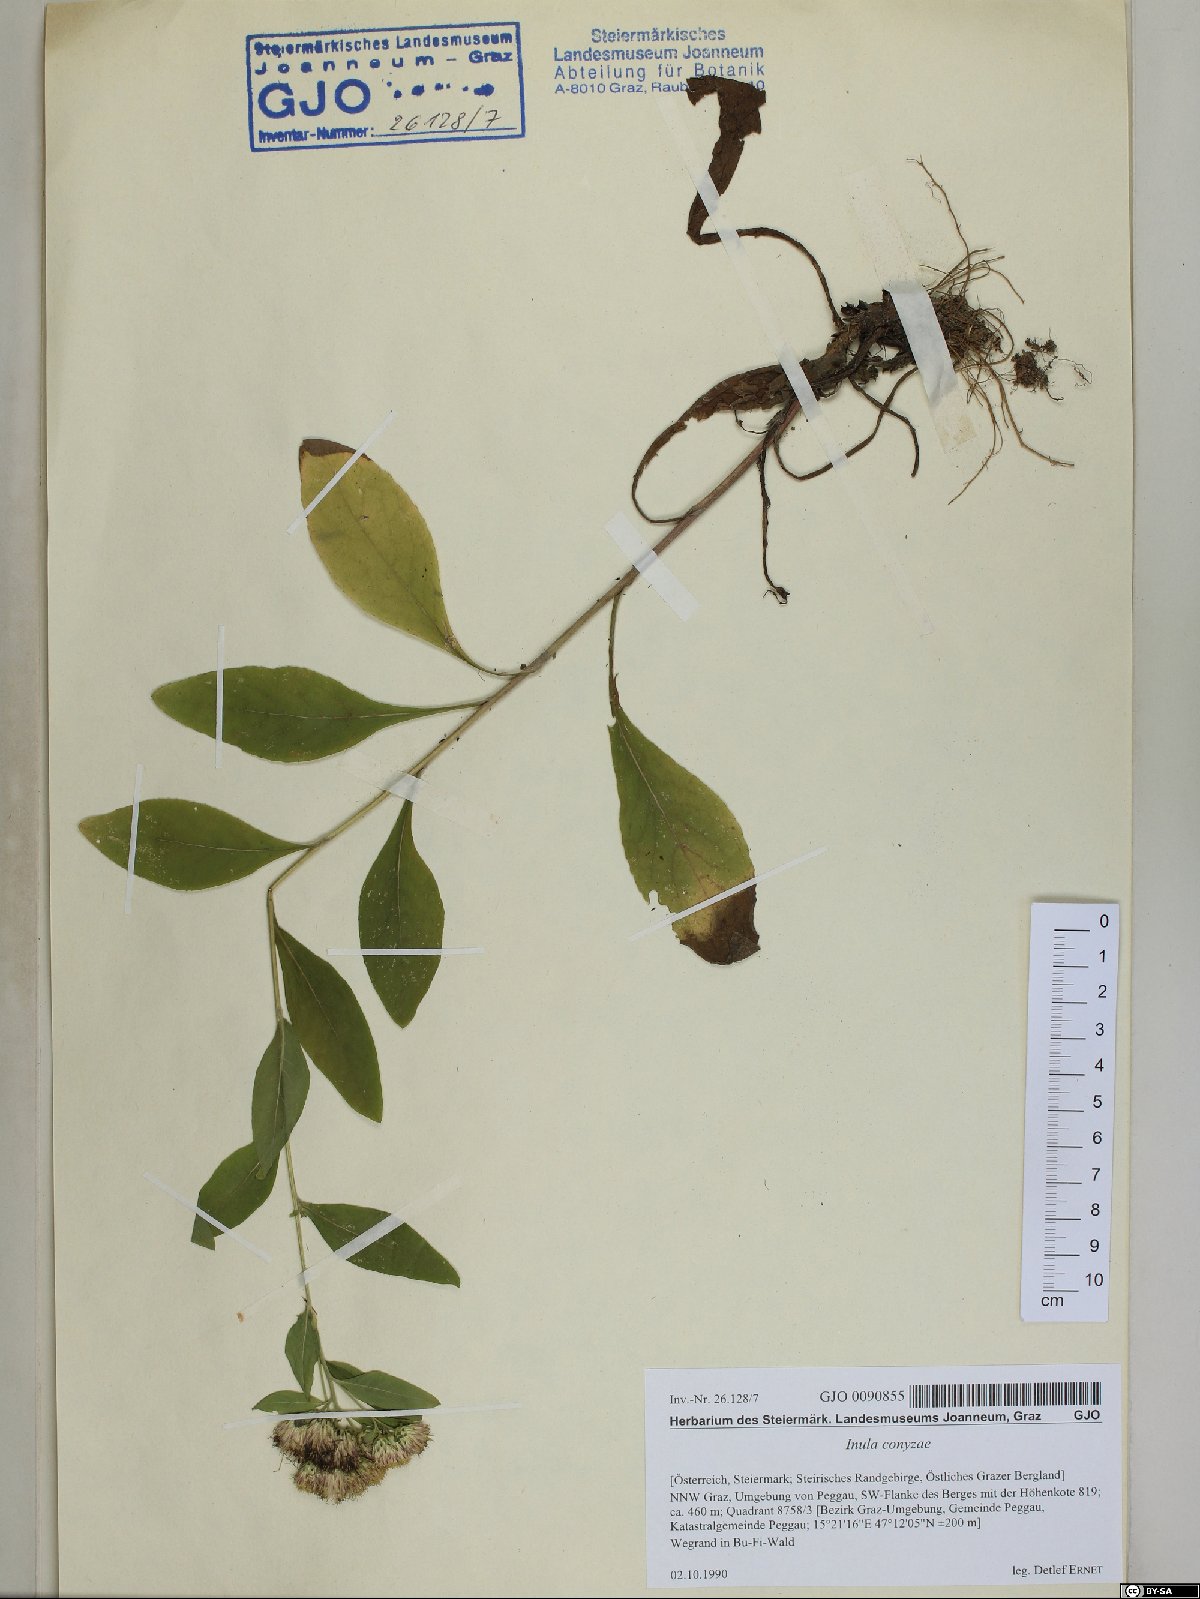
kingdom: Plantae
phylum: Tracheophyta
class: Magnoliopsida
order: Asterales
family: Asteraceae
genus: Pentanema
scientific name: Pentanema squarrosum
